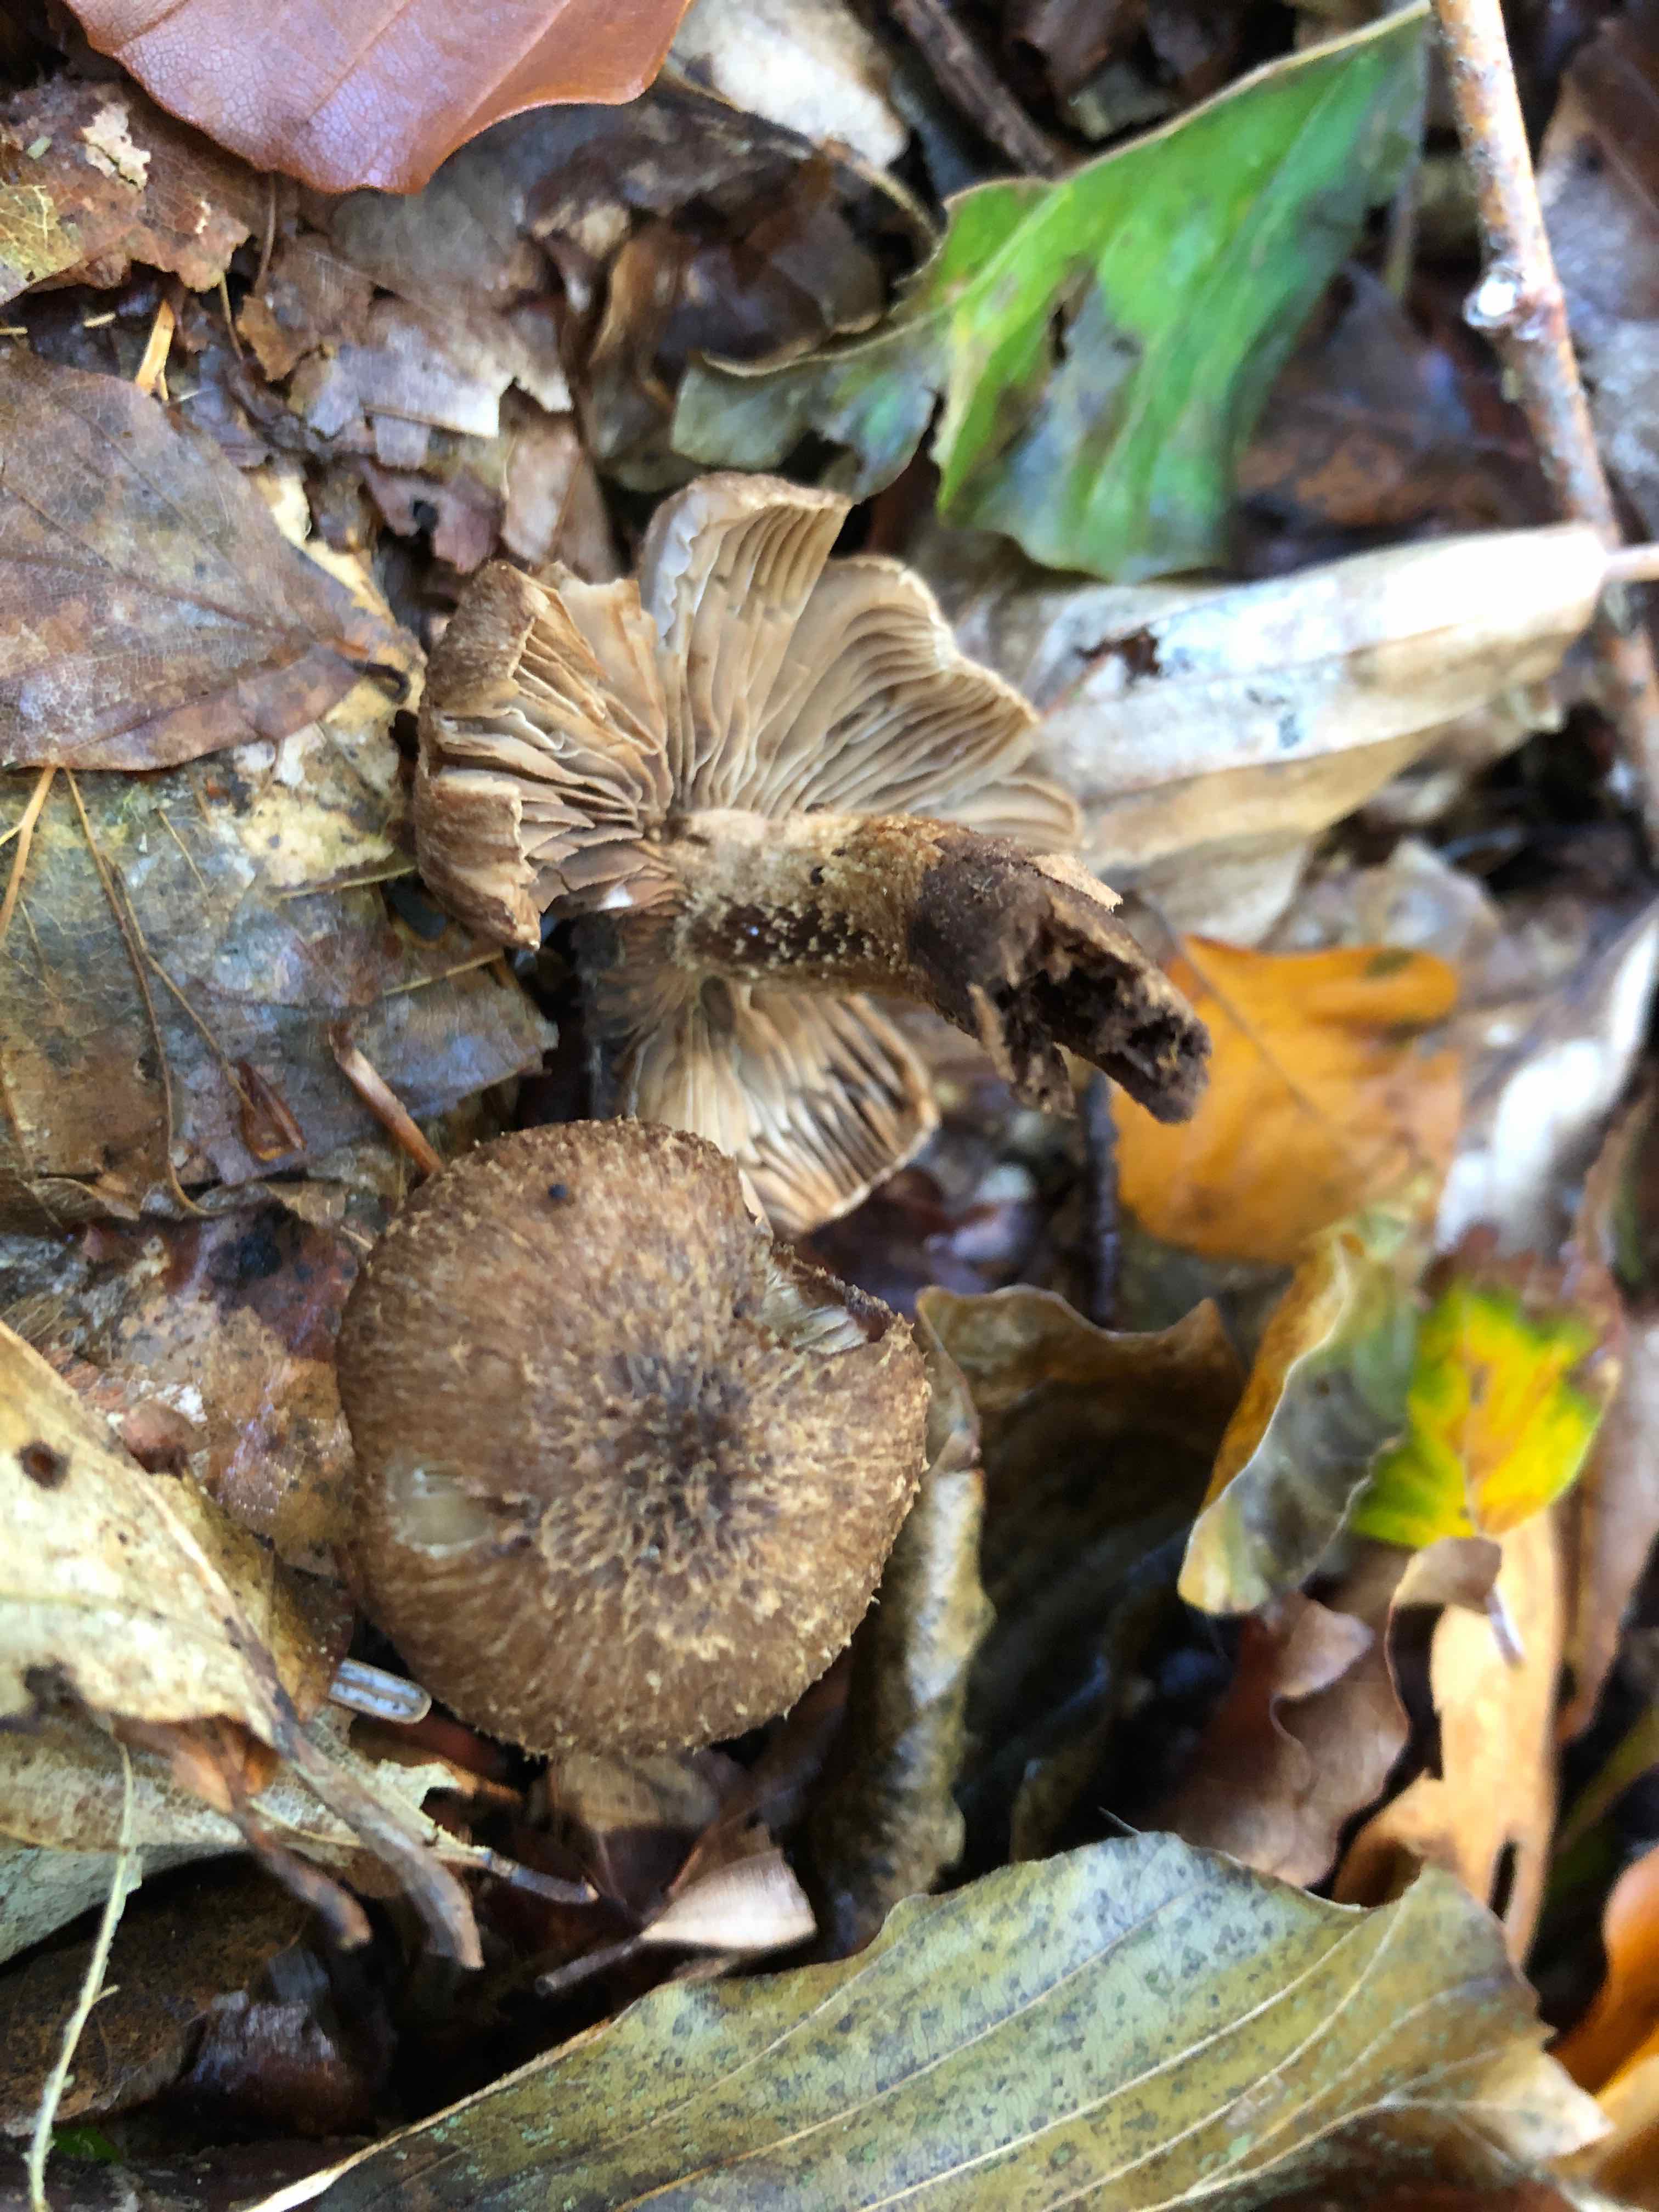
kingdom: Fungi
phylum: Basidiomycota
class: Agaricomycetes
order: Agaricales
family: Inocybaceae
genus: Inocybe
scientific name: Inocybe
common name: trævlhat
